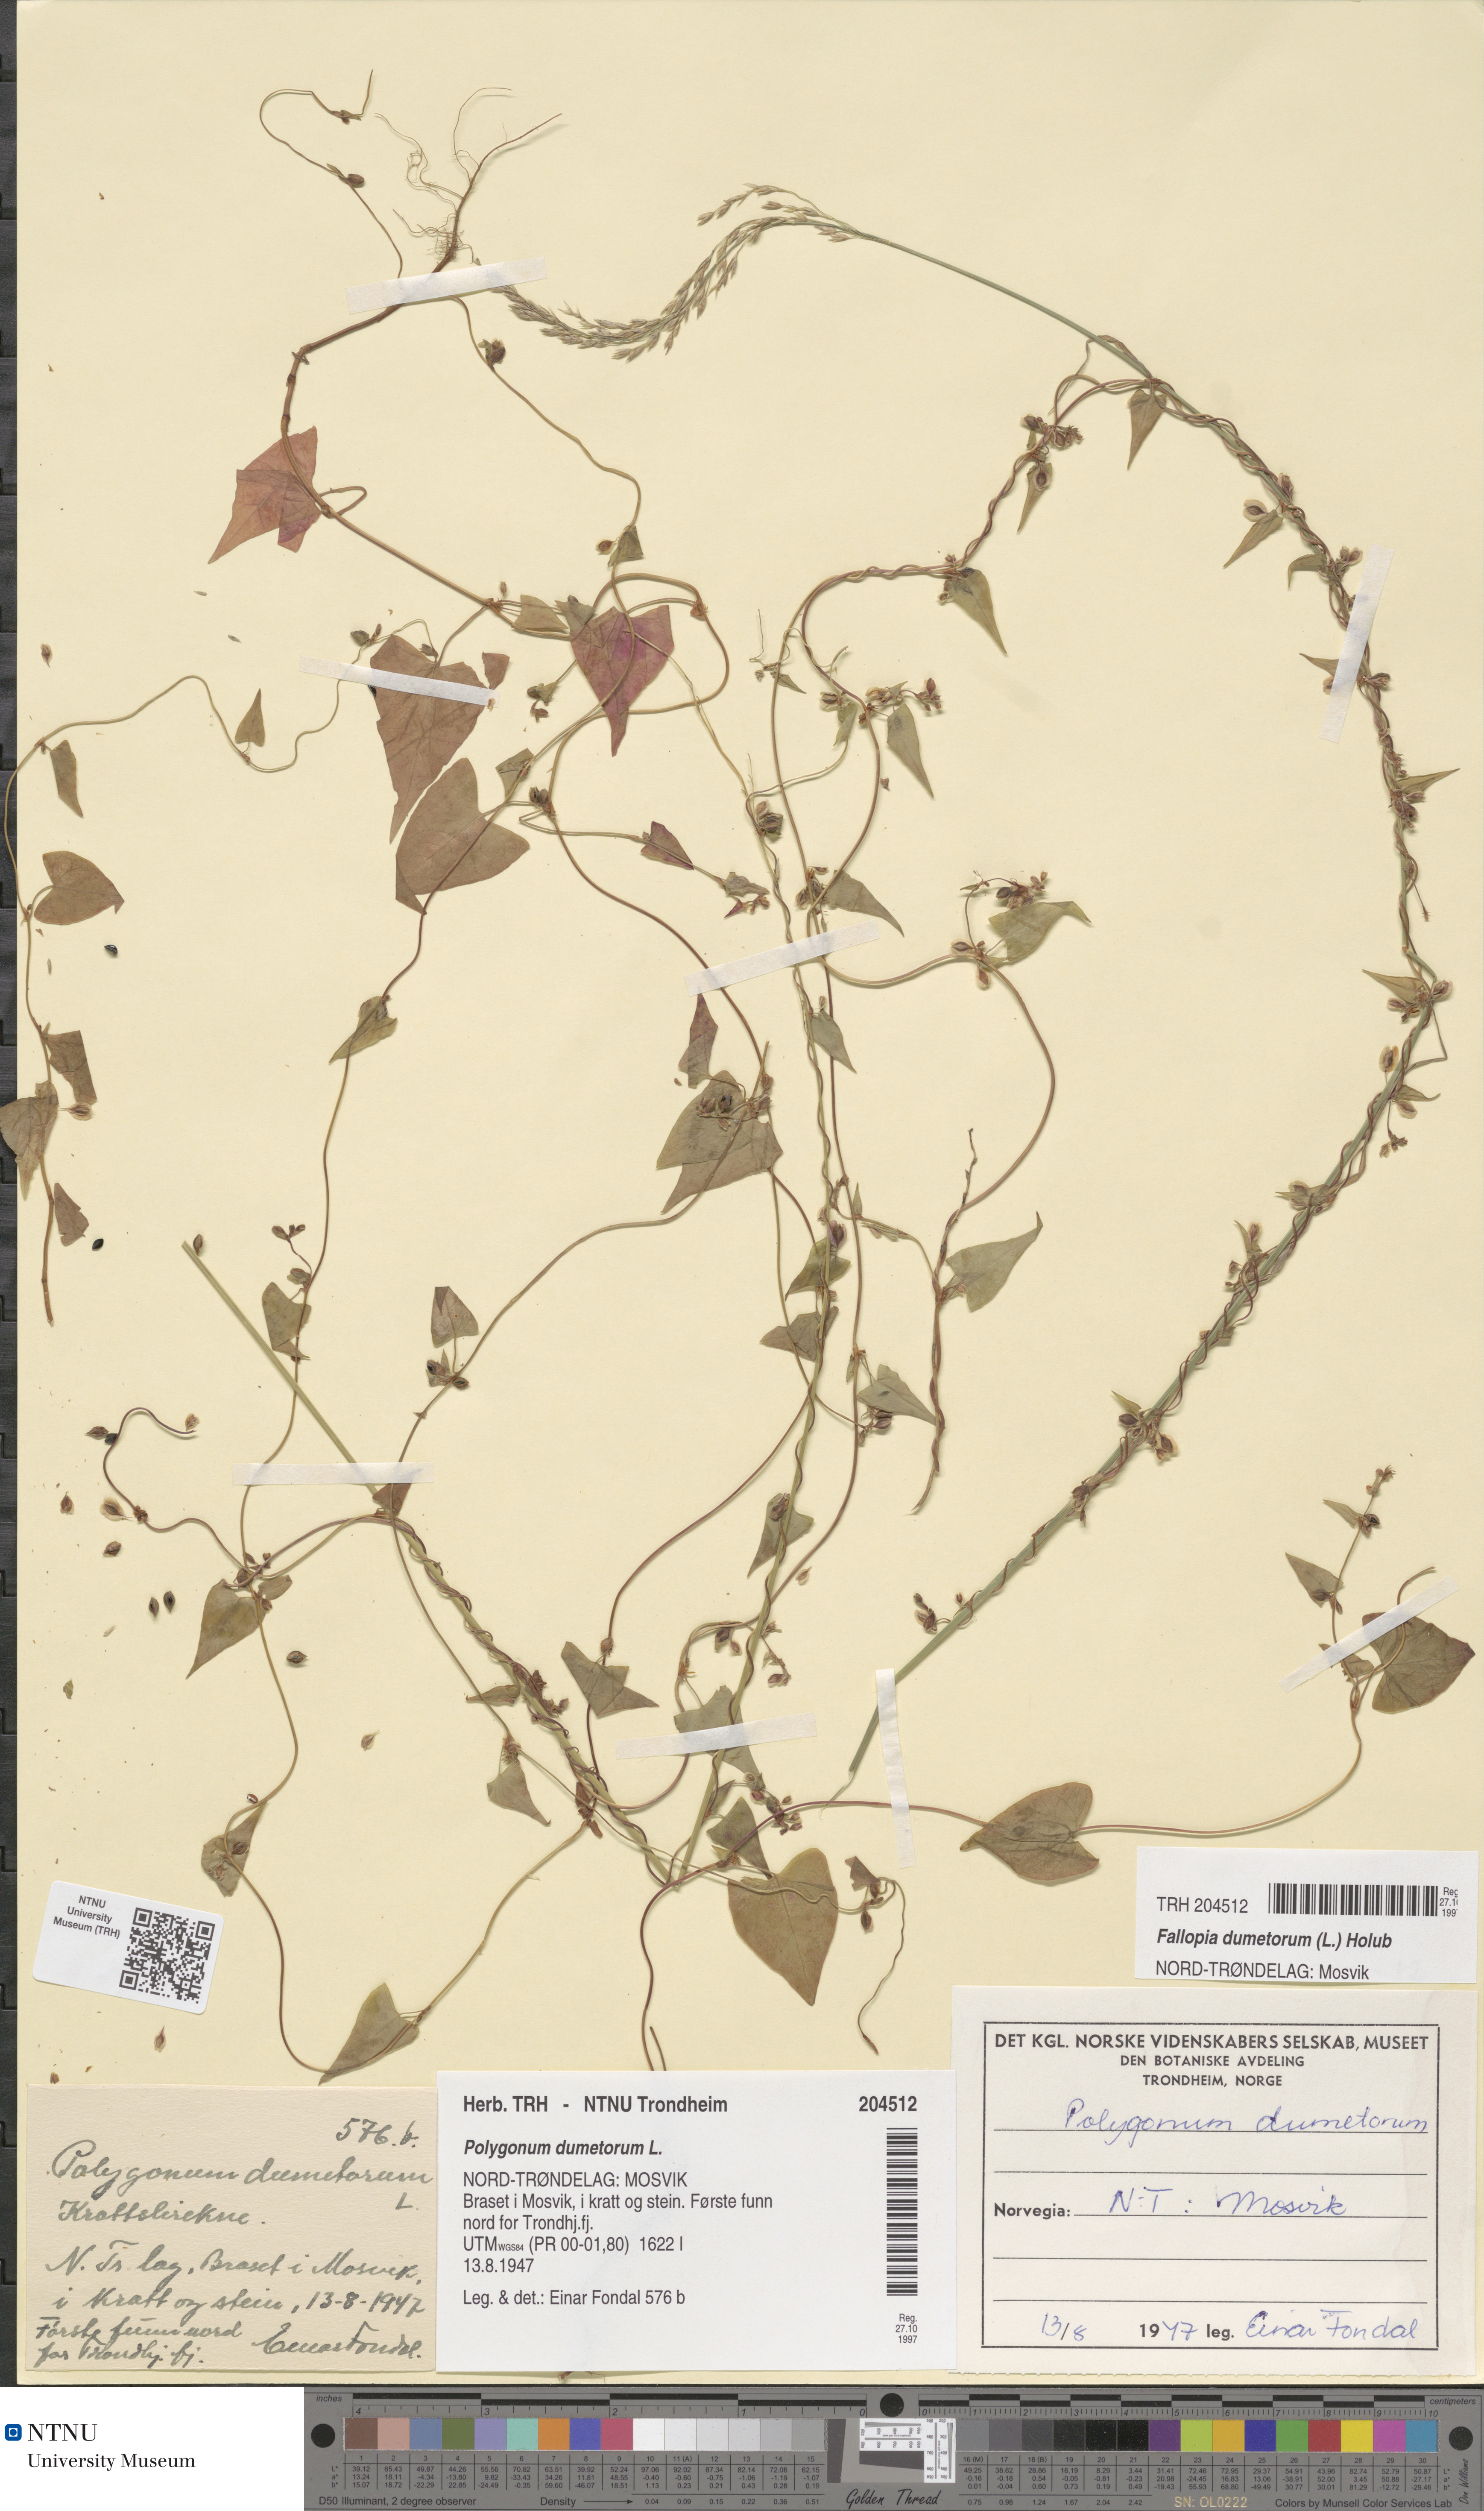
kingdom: Plantae
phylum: Tracheophyta
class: Magnoliopsida
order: Caryophyllales
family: Polygonaceae
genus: Fallopia
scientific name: Fallopia dumetorum
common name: Copse-bindweed
